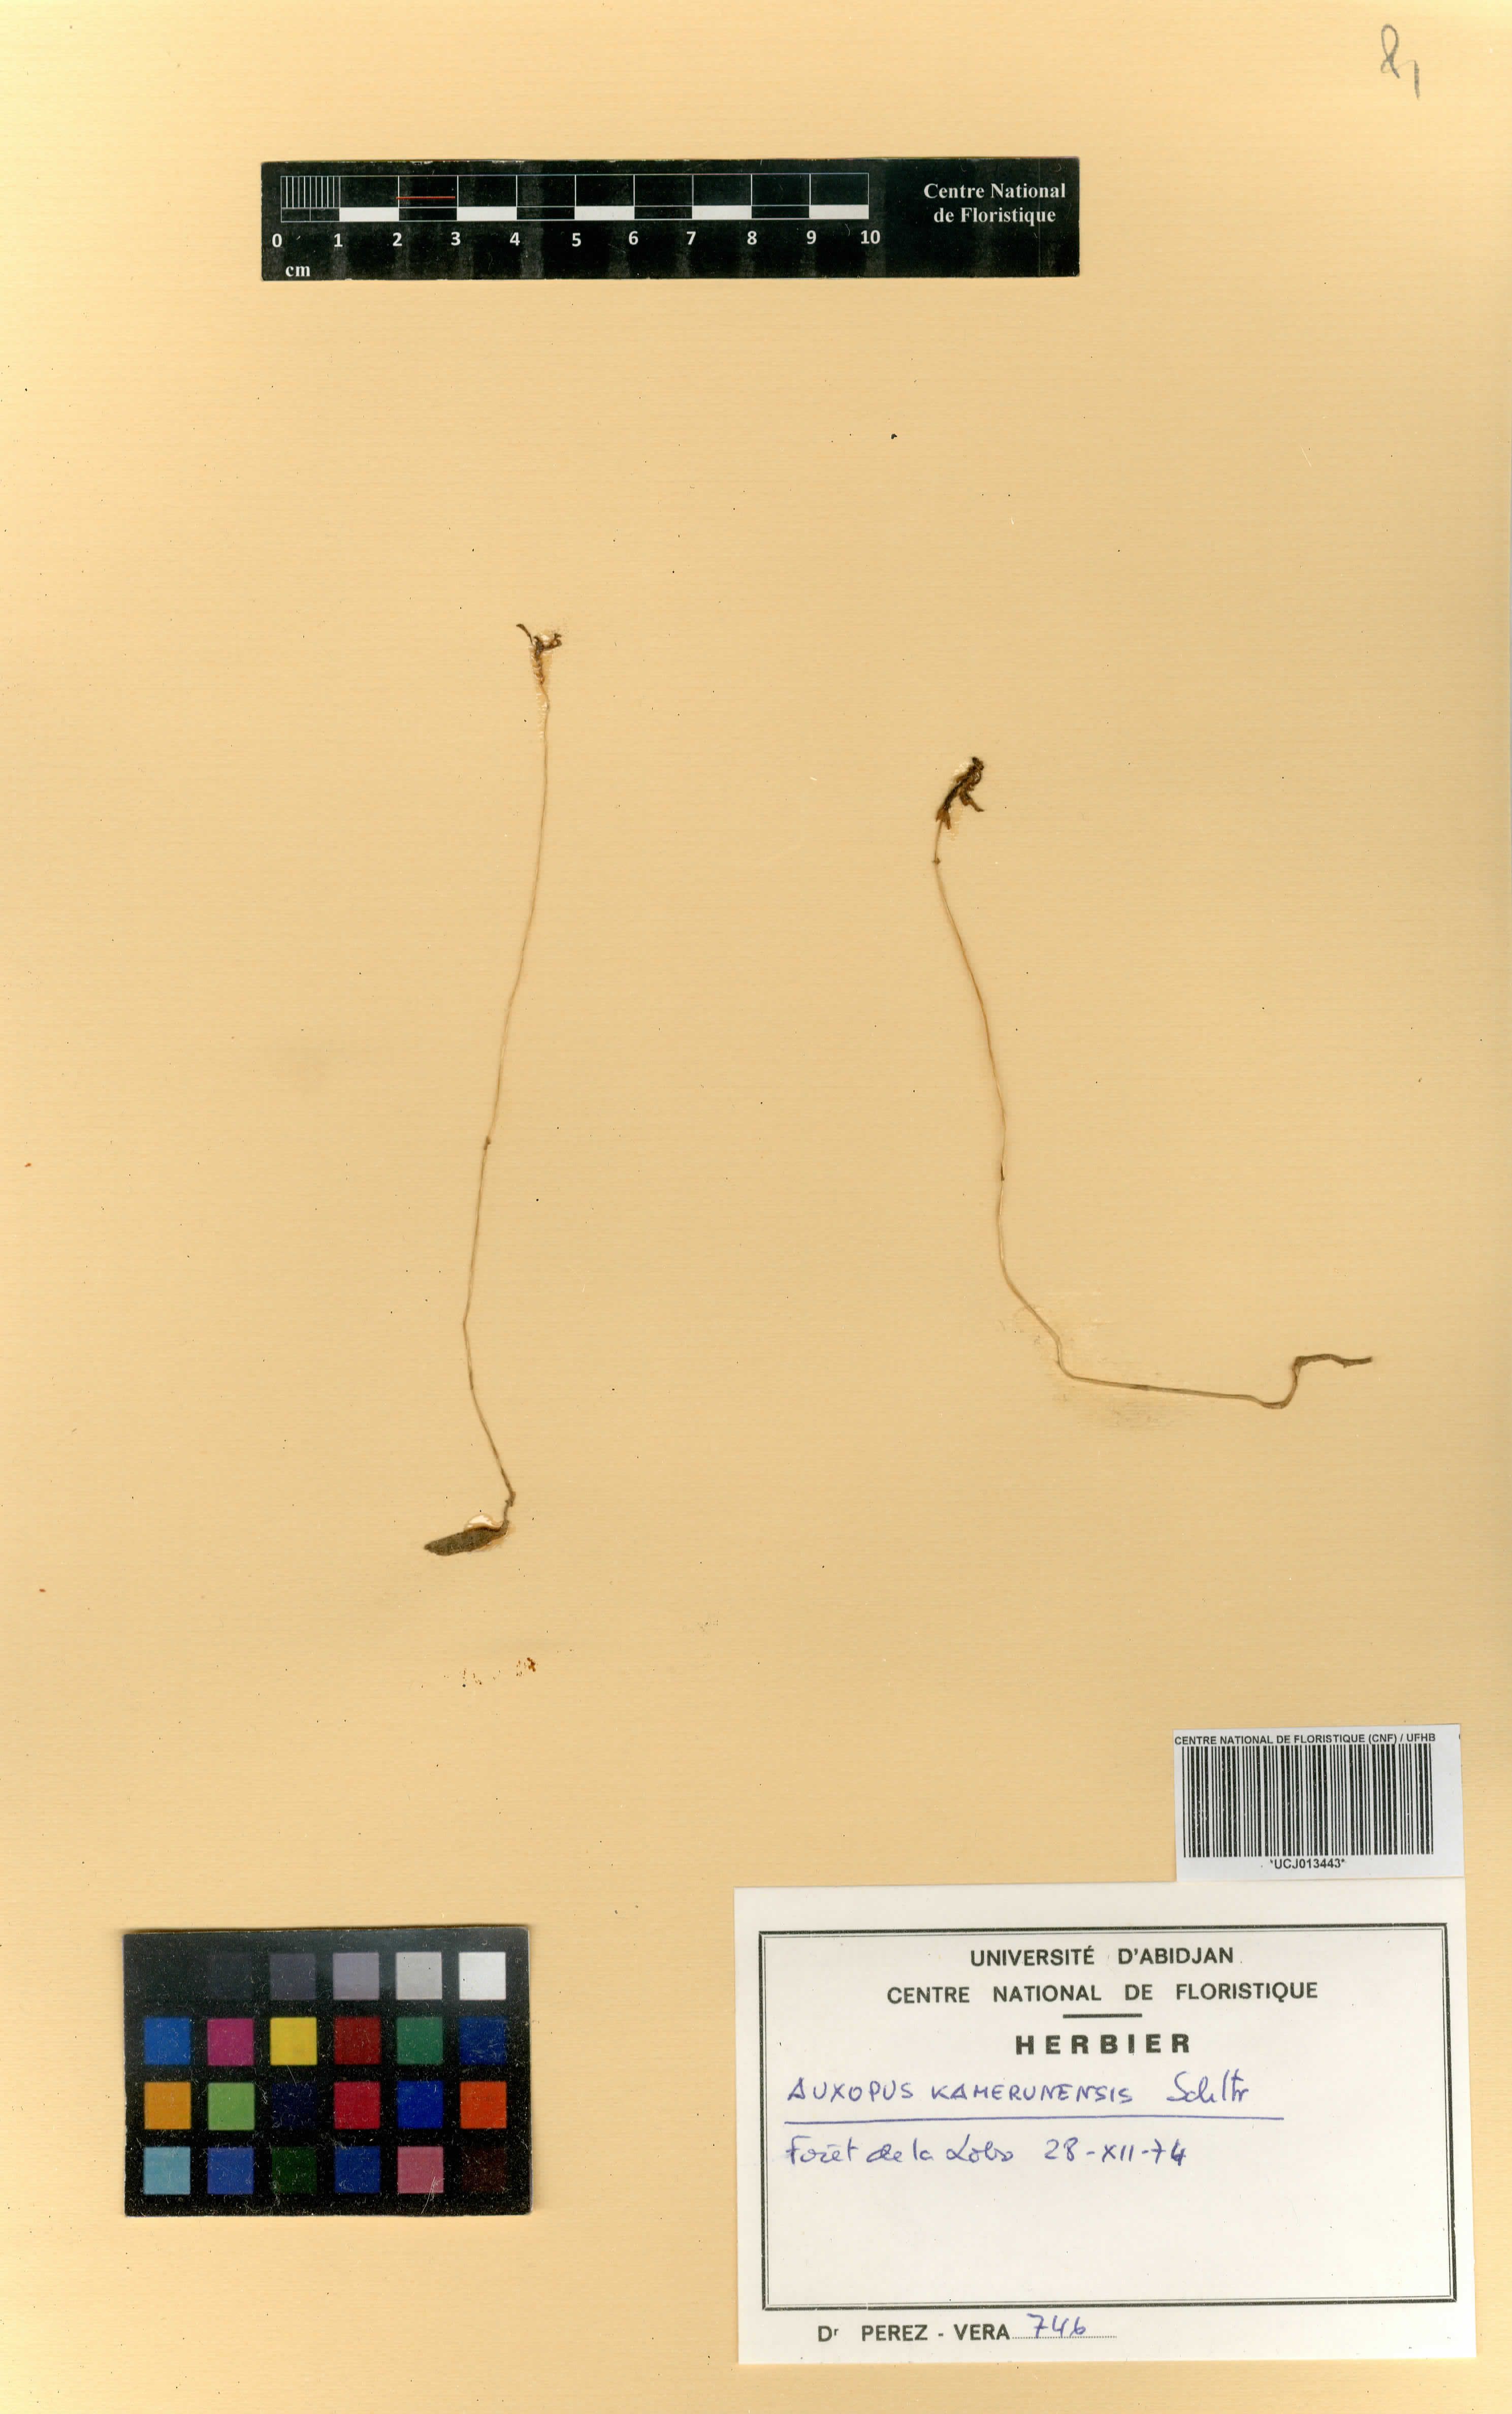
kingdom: Plantae
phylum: Tracheophyta
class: Liliopsida
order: Asparagales
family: Orchidaceae
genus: Auxopus
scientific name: Auxopus kamerunensis
